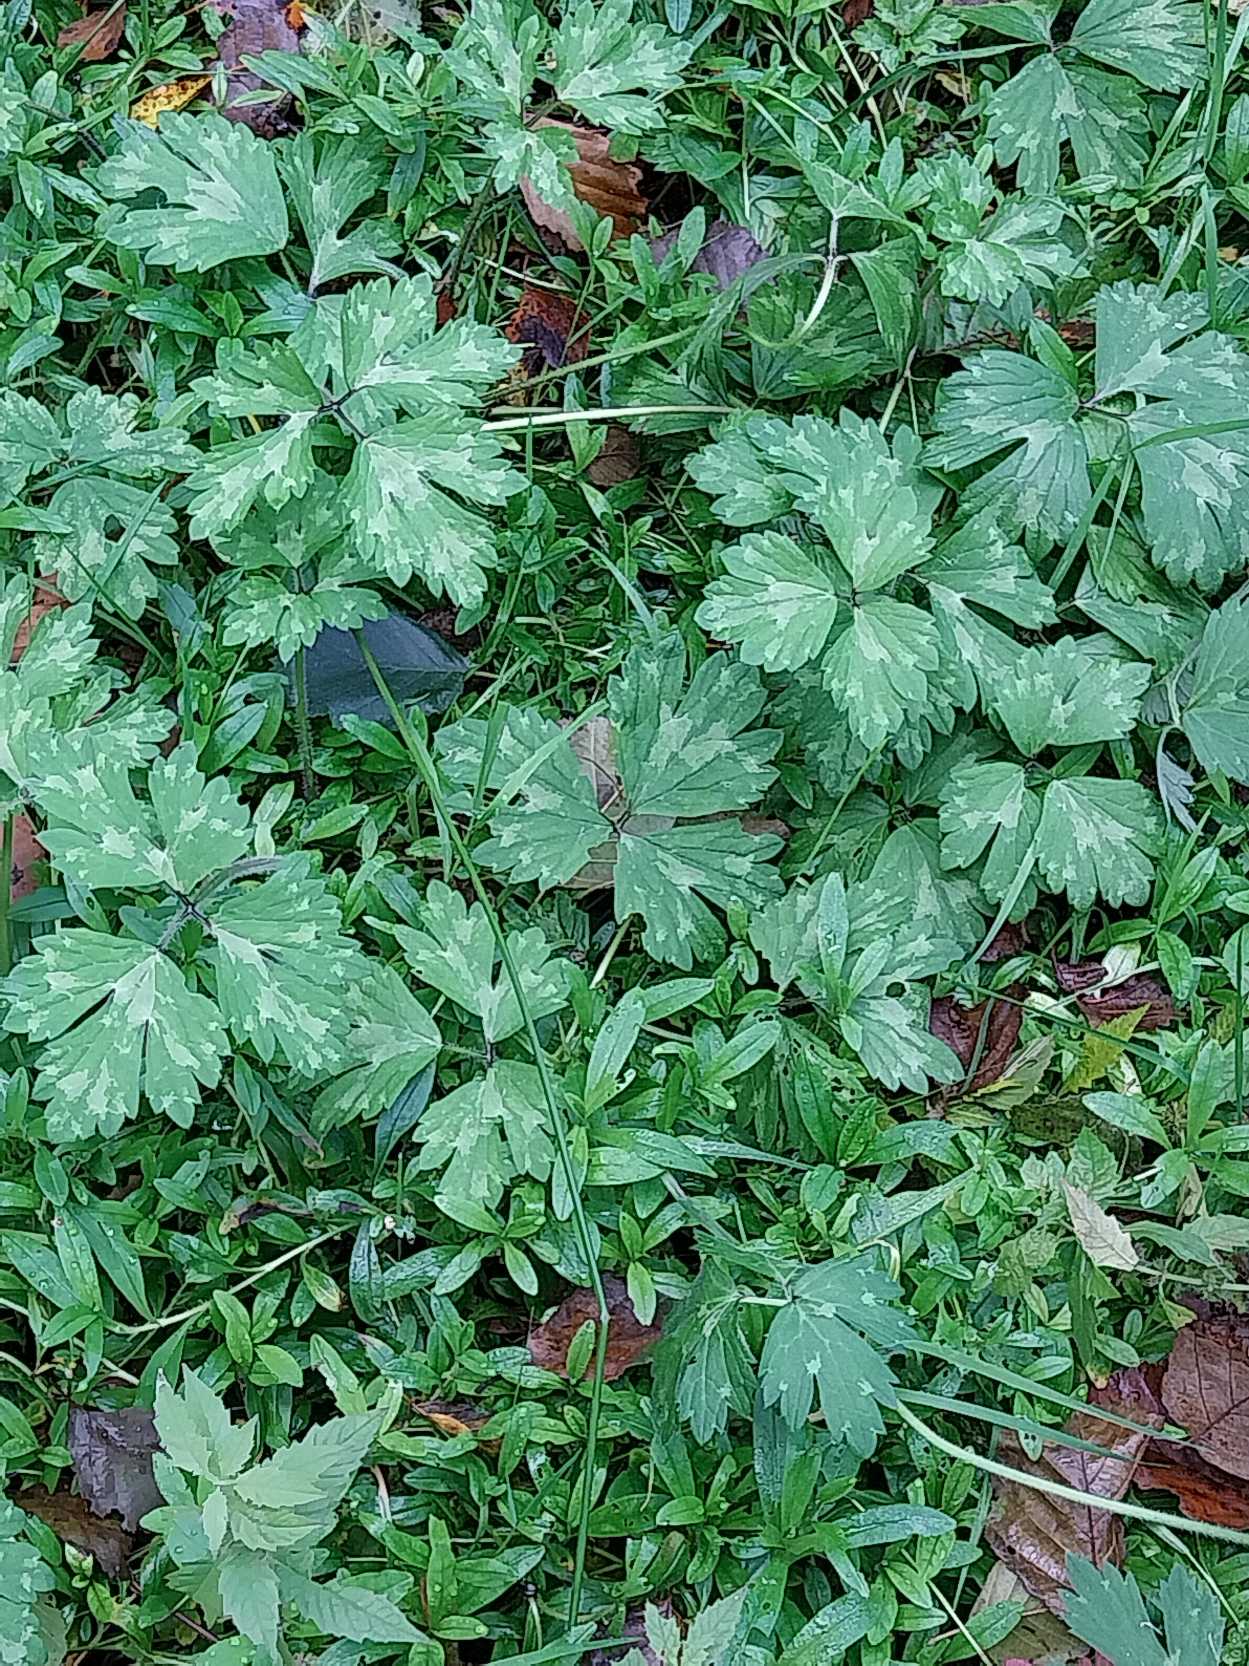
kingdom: Plantae
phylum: Tracheophyta
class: Magnoliopsida
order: Ranunculales
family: Ranunculaceae
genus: Ranunculus
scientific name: Ranunculus repens
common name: Lav ranunkel
